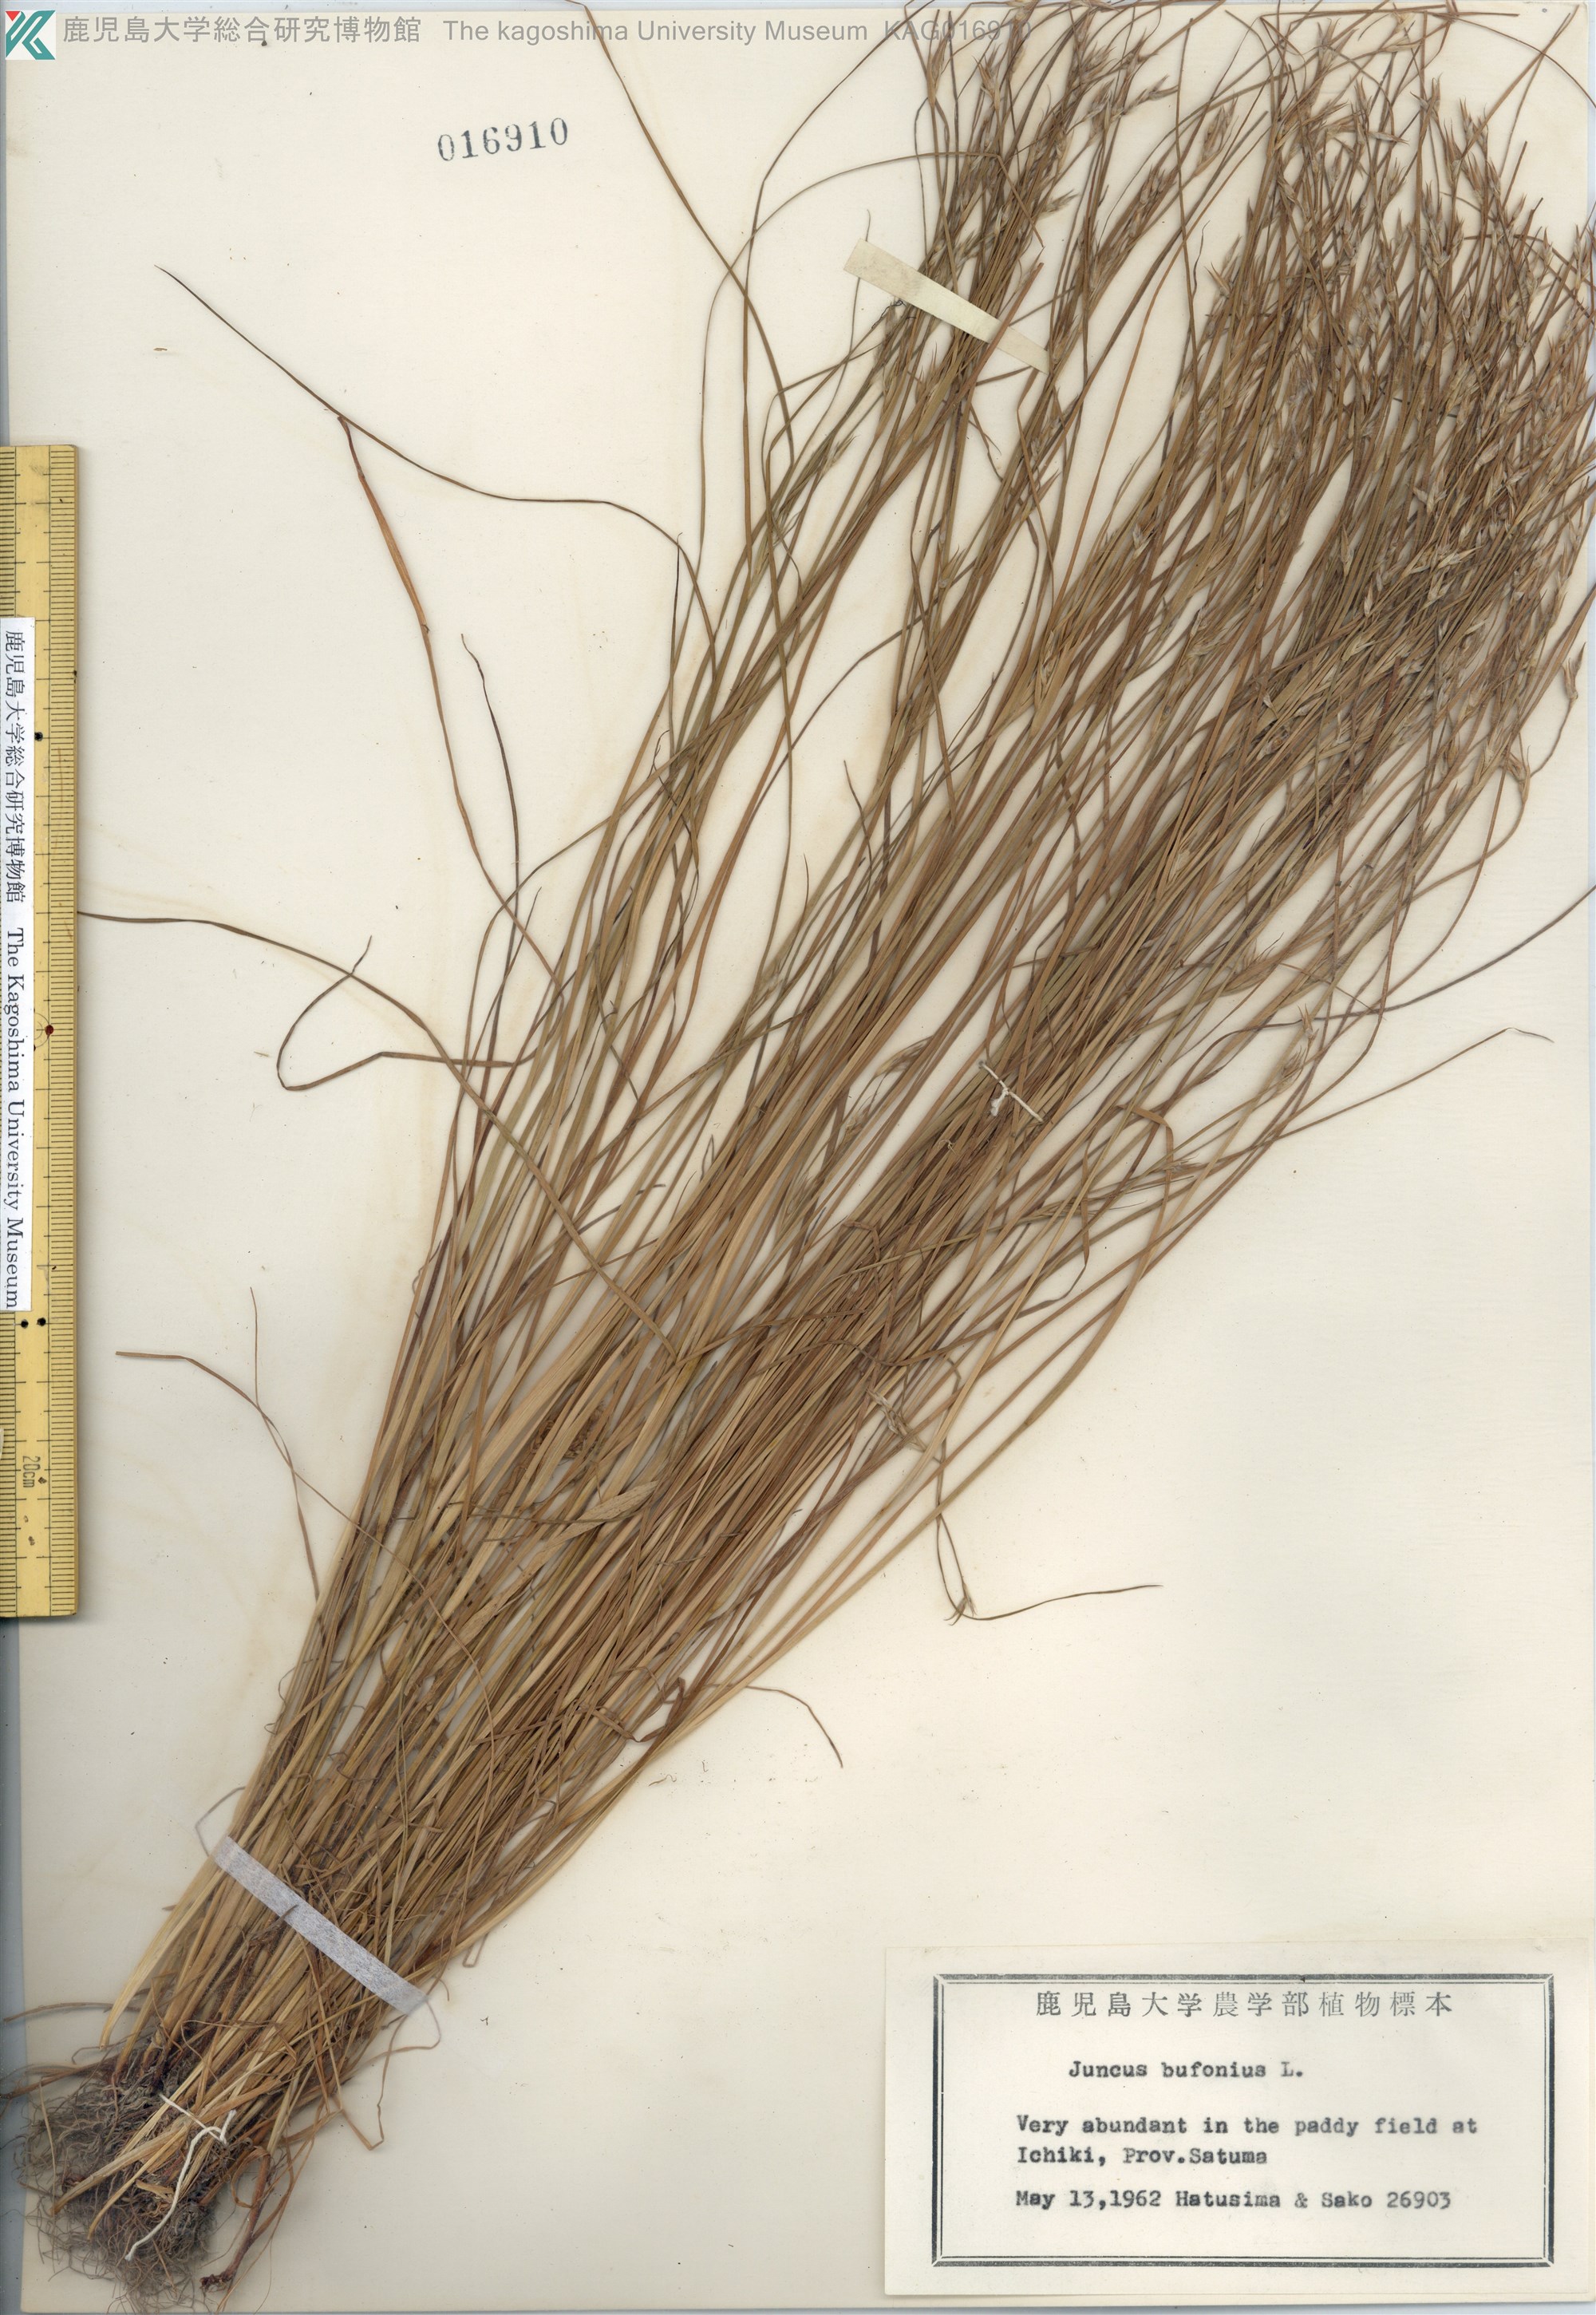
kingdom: Plantae
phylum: Tracheophyta
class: Liliopsida
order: Poales
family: Juncaceae
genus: Juncus
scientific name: Juncus bufonius
